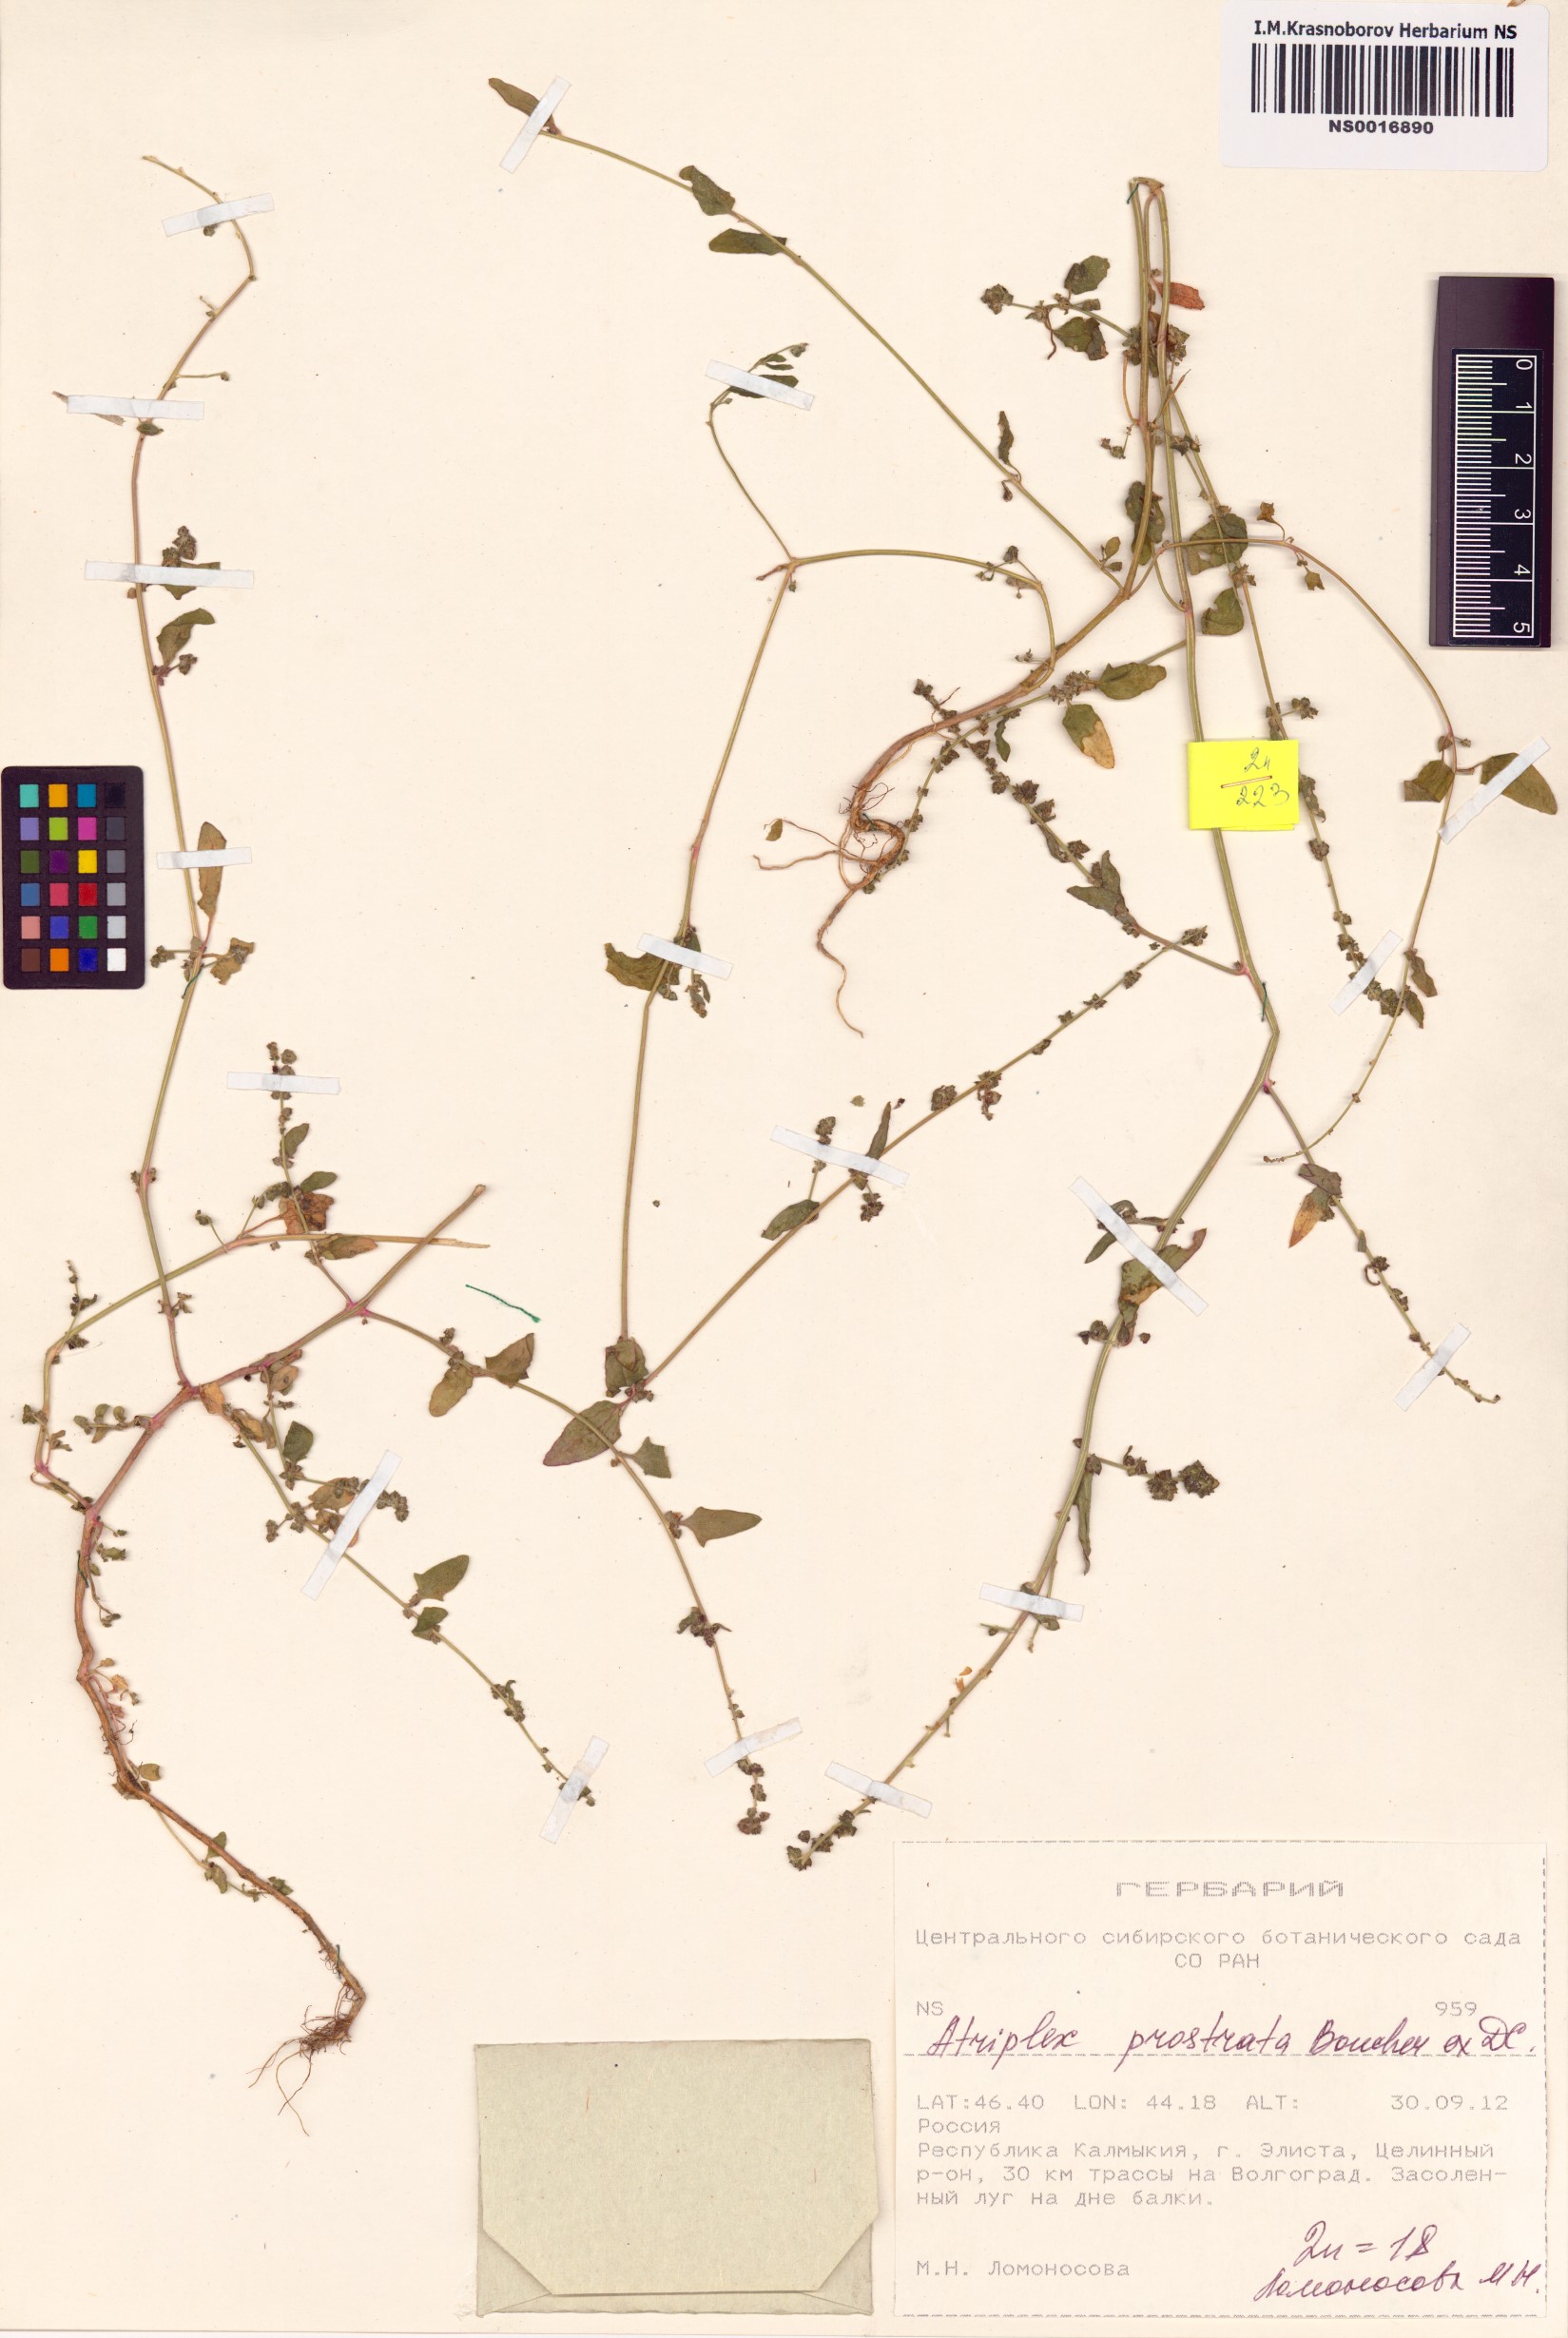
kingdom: Plantae
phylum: Tracheophyta
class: Magnoliopsida
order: Caryophyllales
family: Amaranthaceae
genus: Atriplex
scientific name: Atriplex prostrata
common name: Spear-leaved orache
